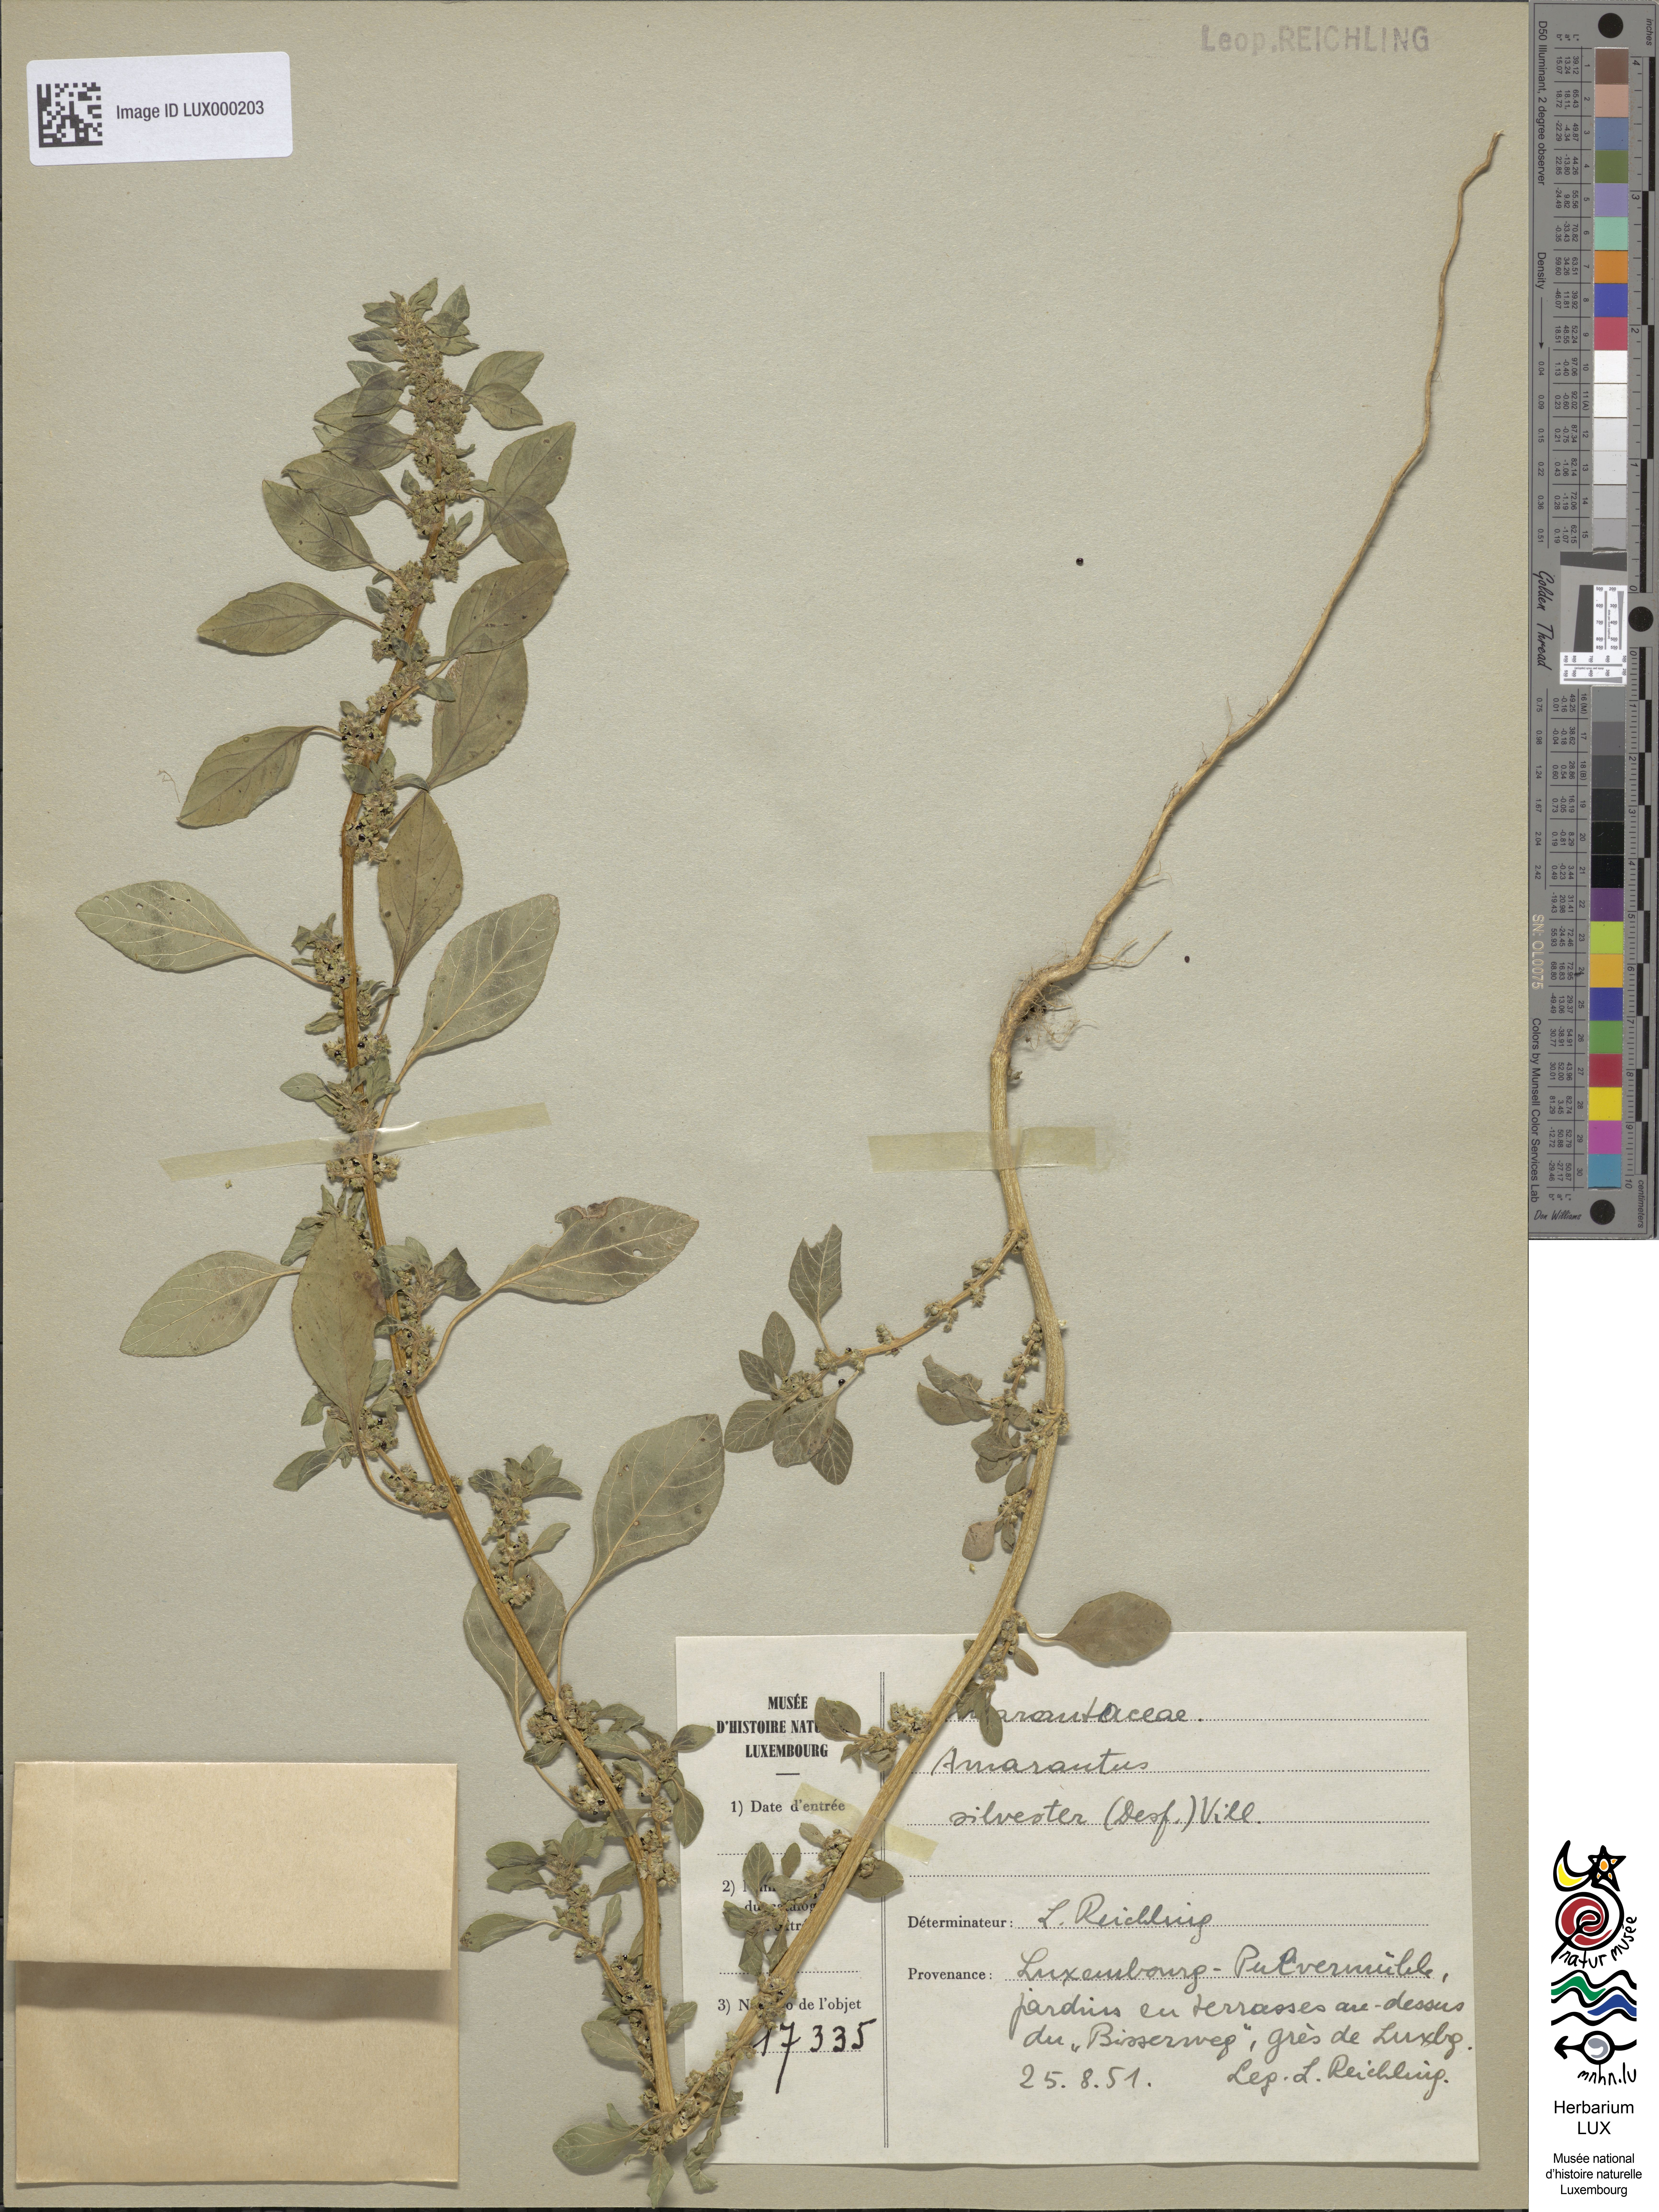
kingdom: Plantae
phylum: Tracheophyta
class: Magnoliopsida
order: Caryophyllales
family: Amaranthaceae
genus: Amaranthus
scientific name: Amaranthus
